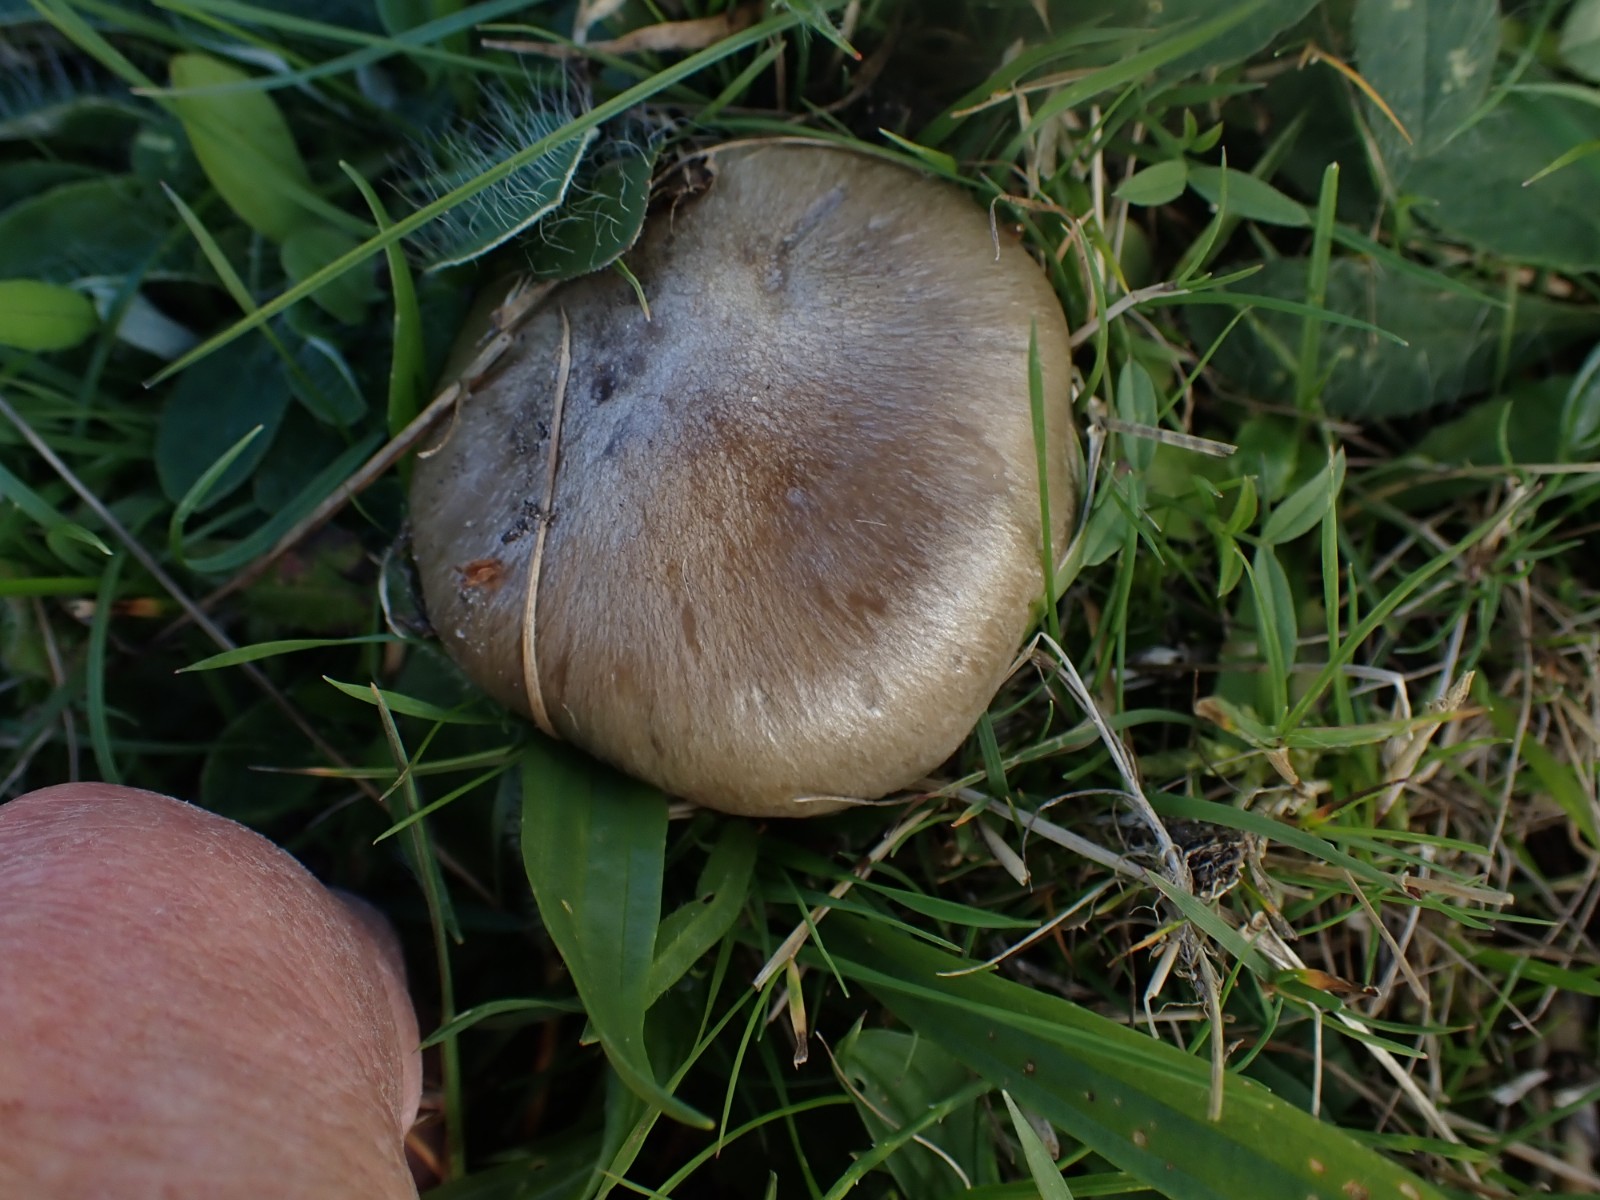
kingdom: Fungi
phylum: Basidiomycota
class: Agaricomycetes
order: Agaricales
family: Entolomataceae
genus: Entoloma
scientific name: Entoloma prunuloides
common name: mel-rødblad
